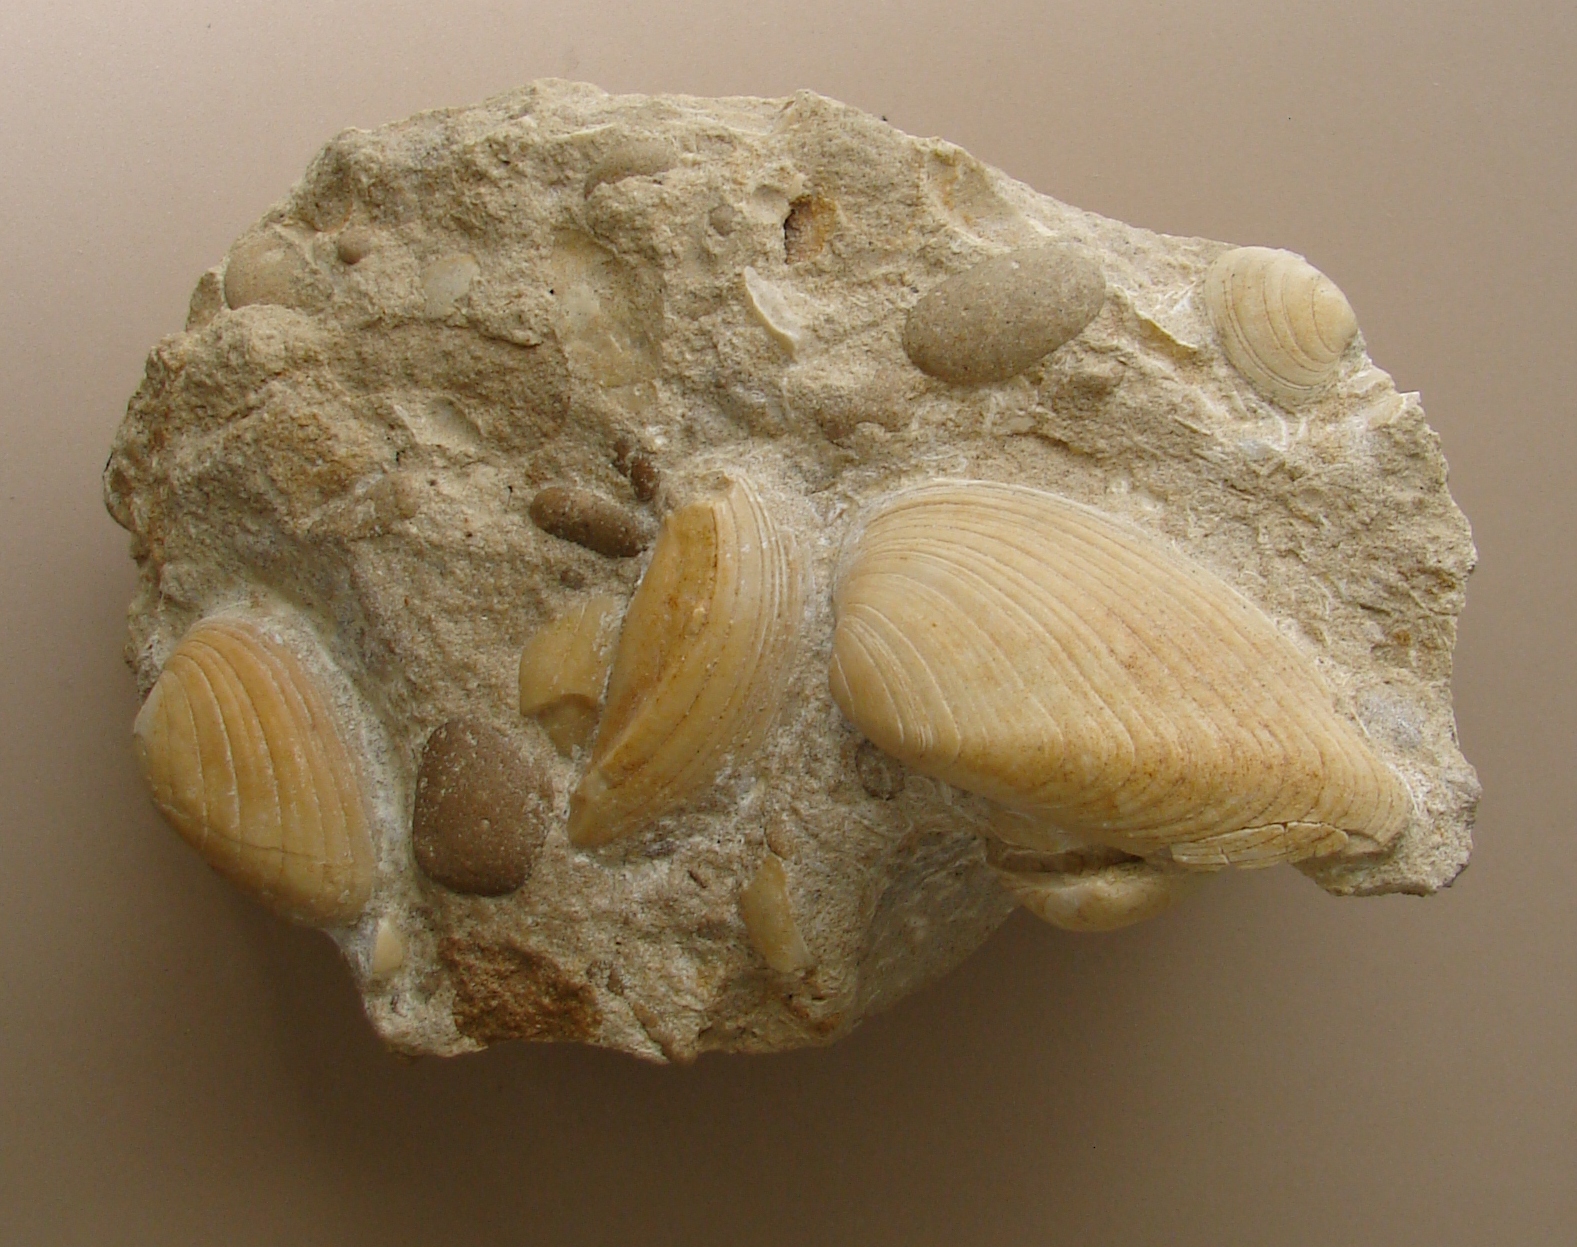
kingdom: Animalia
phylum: Mollusca
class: Bivalvia
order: Carditida
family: Cardiniidae
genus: Cardinia
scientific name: Cardinia
